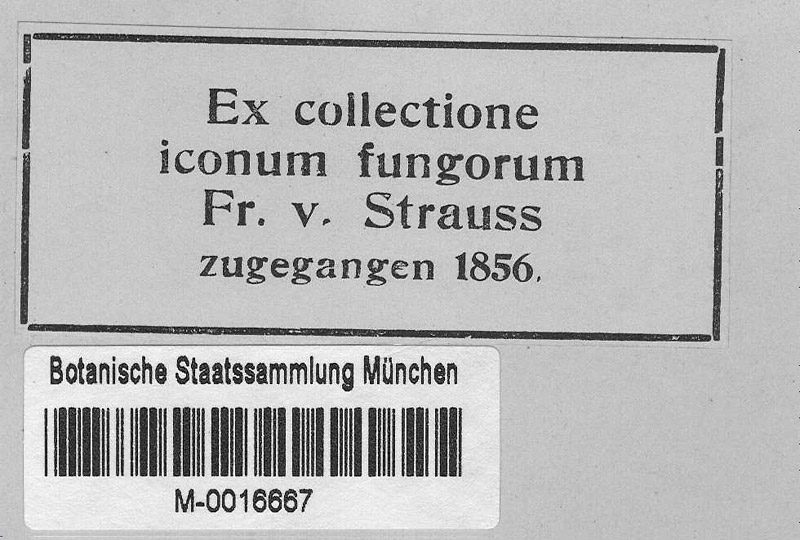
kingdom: Fungi
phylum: Ascomycota
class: Leotiomycetes
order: Helotiales
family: Erysiphaceae
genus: Erysiphe
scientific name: Erysiphe tortilis
